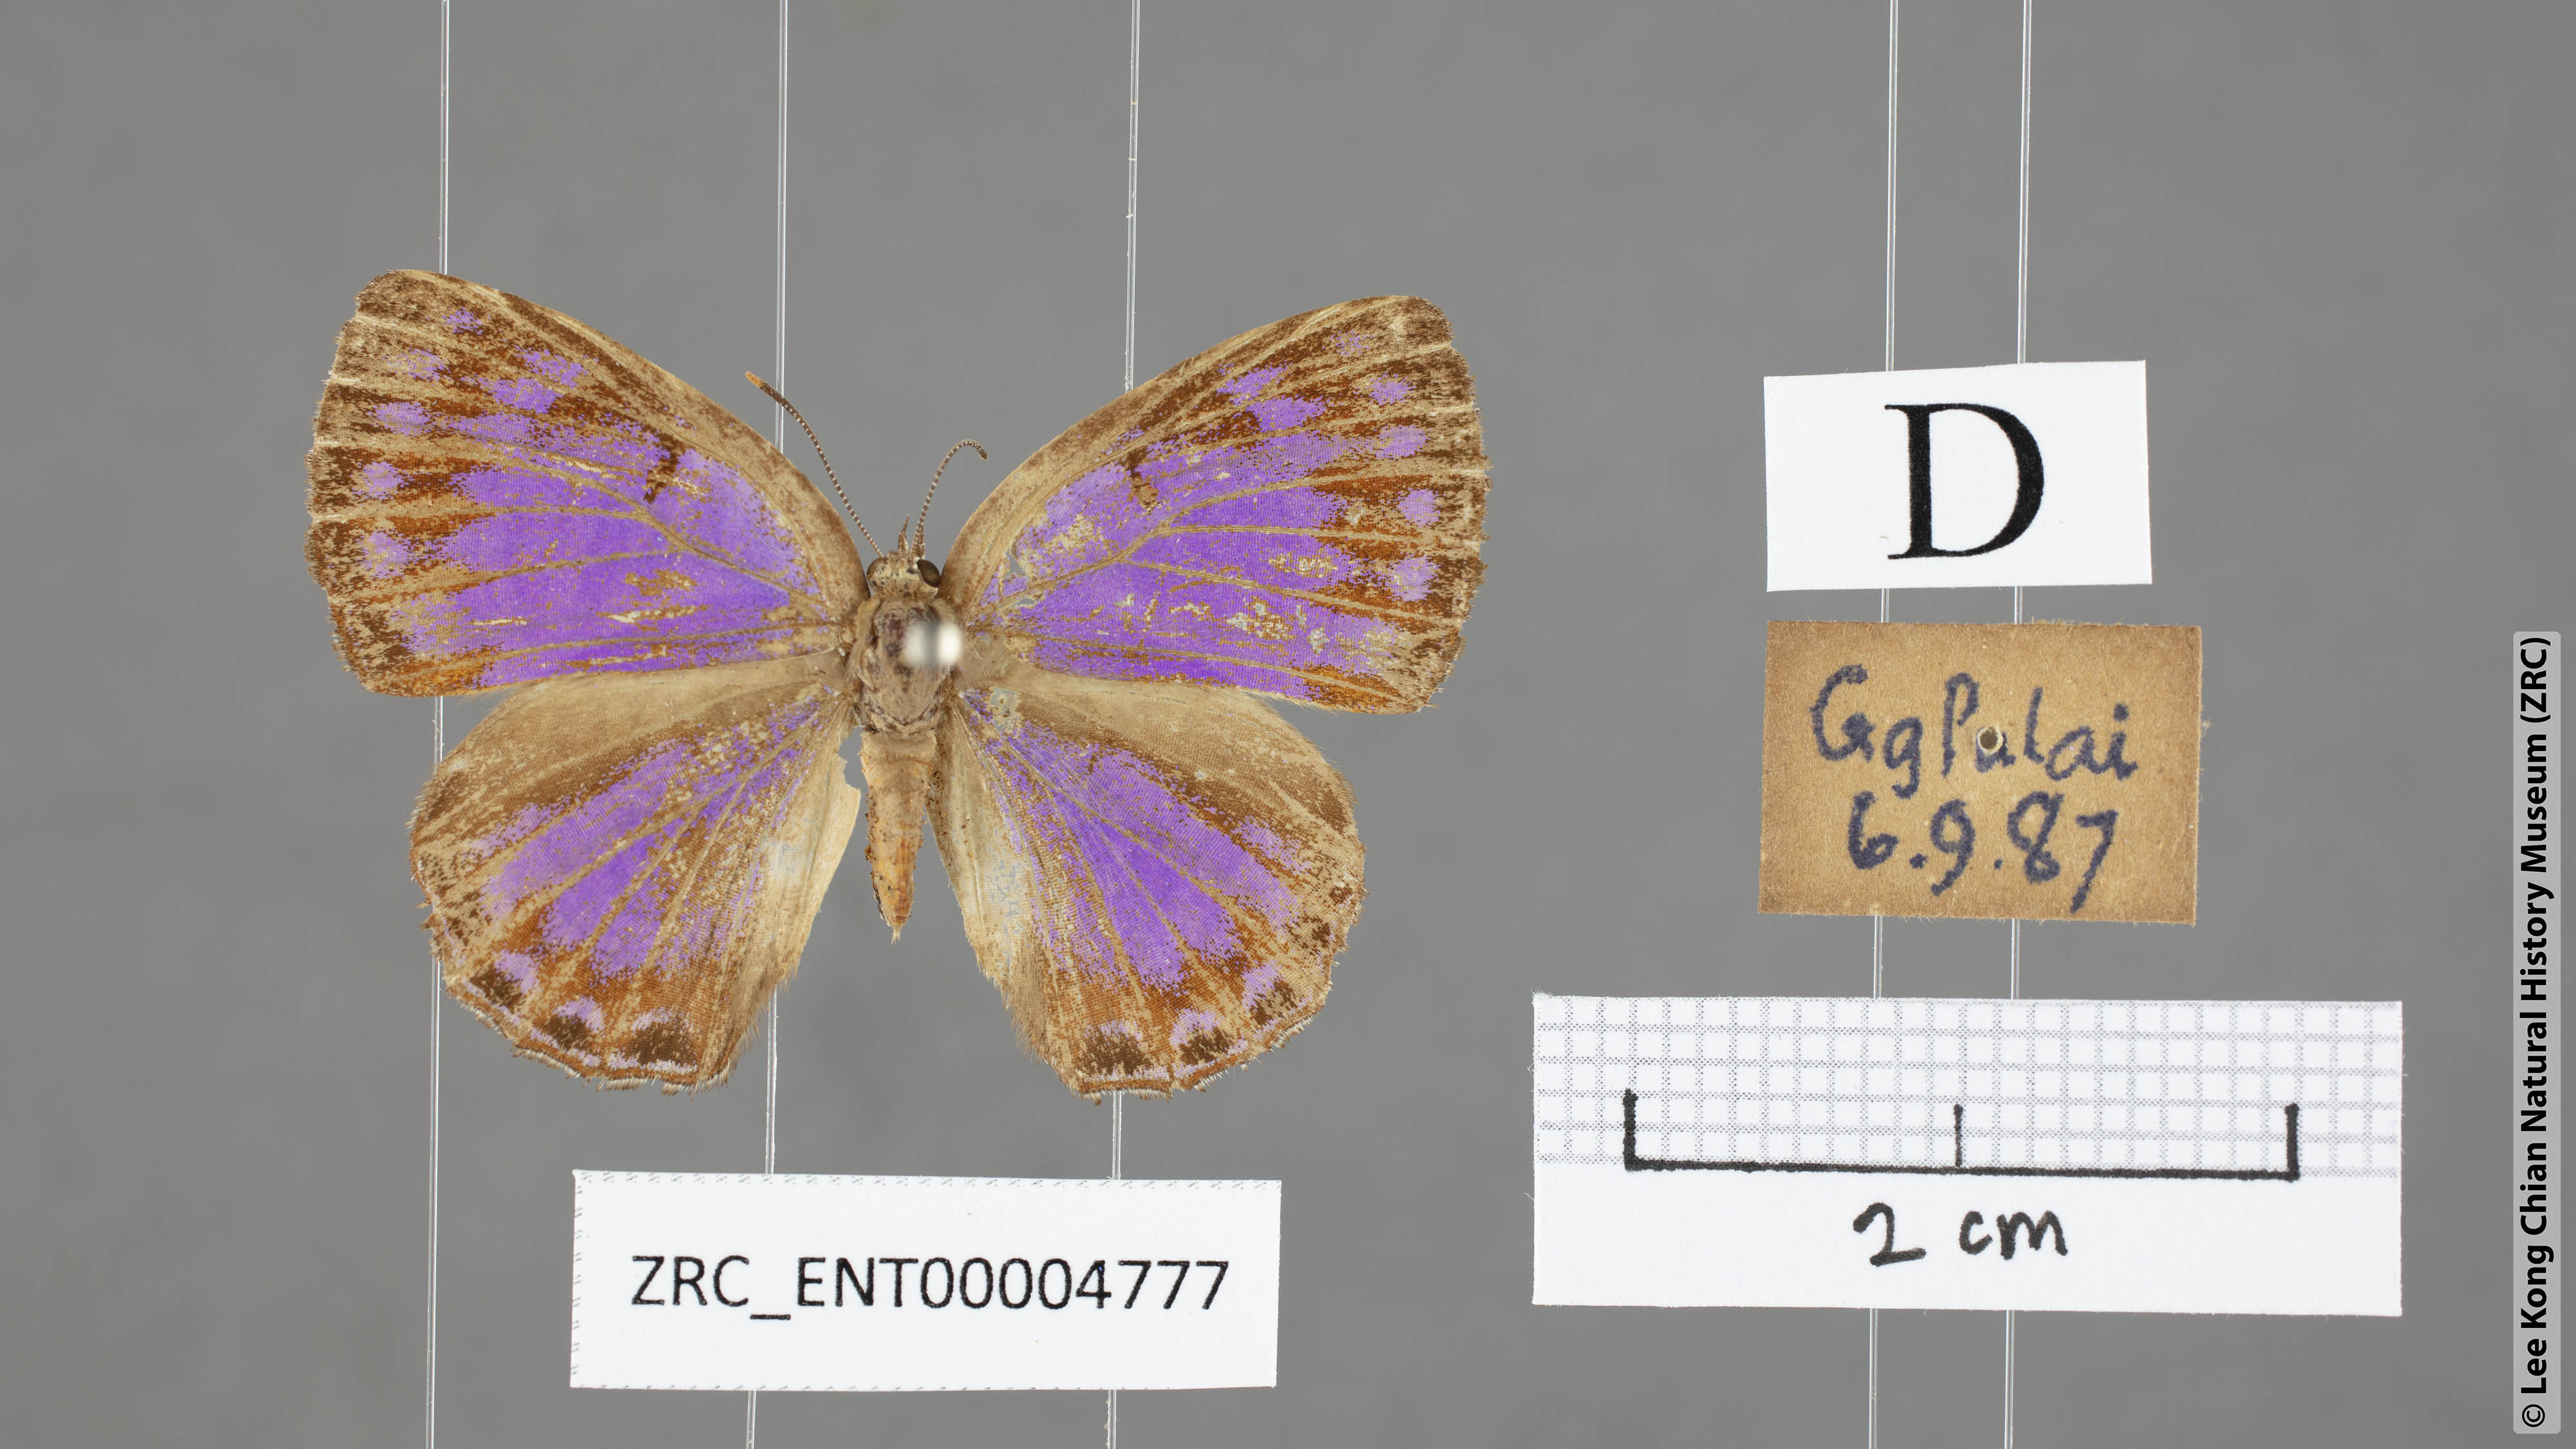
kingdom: Animalia
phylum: Arthropoda
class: Insecta
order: Lepidoptera
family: Lycaenidae
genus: Poritia
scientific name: Poritia sumatrae
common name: Sumatran gem
